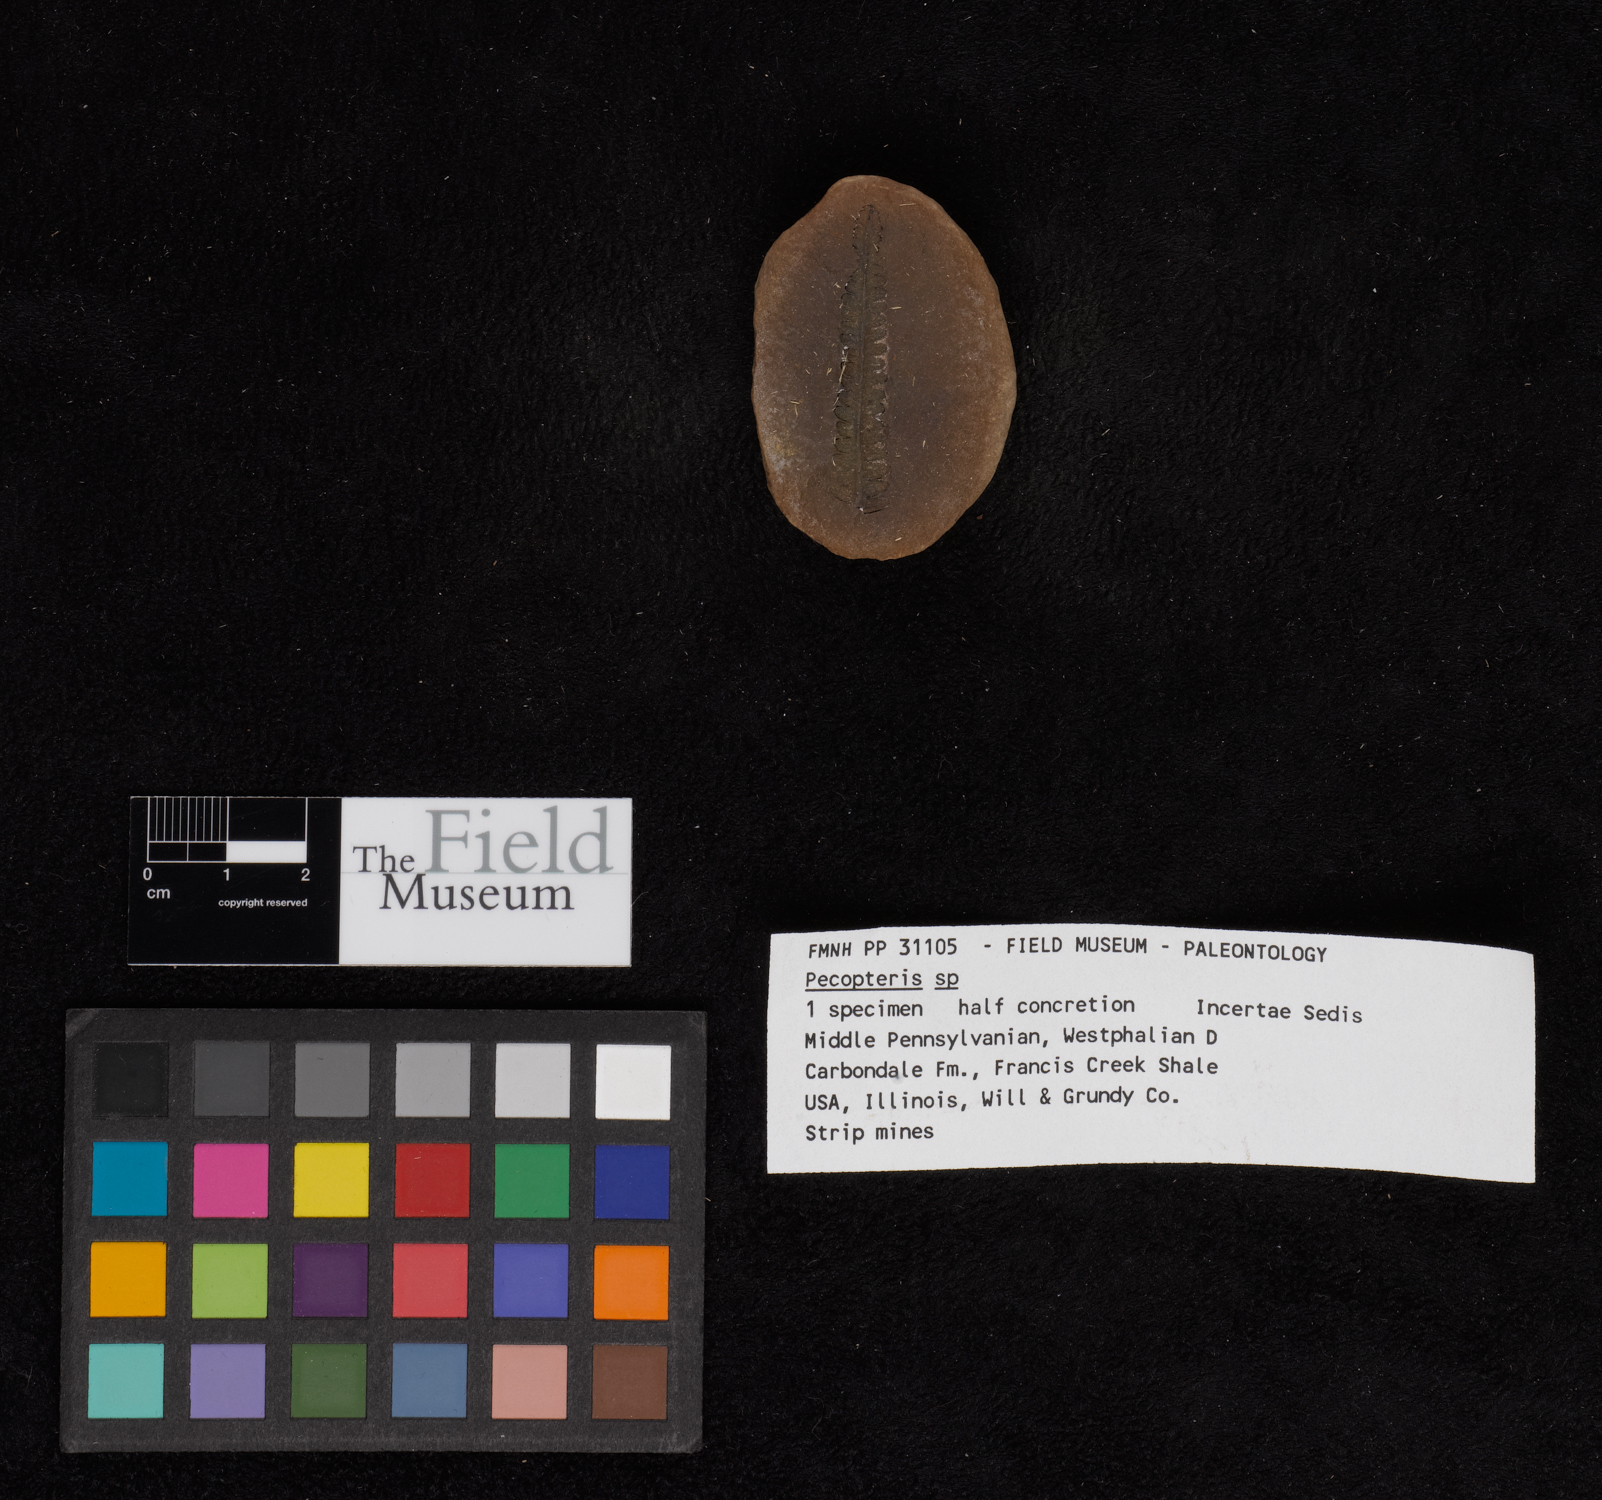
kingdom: Plantae
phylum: Tracheophyta
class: Polypodiopsida
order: Marattiales
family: Asterothecaceae
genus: Pecopteris
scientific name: Pecopteris
